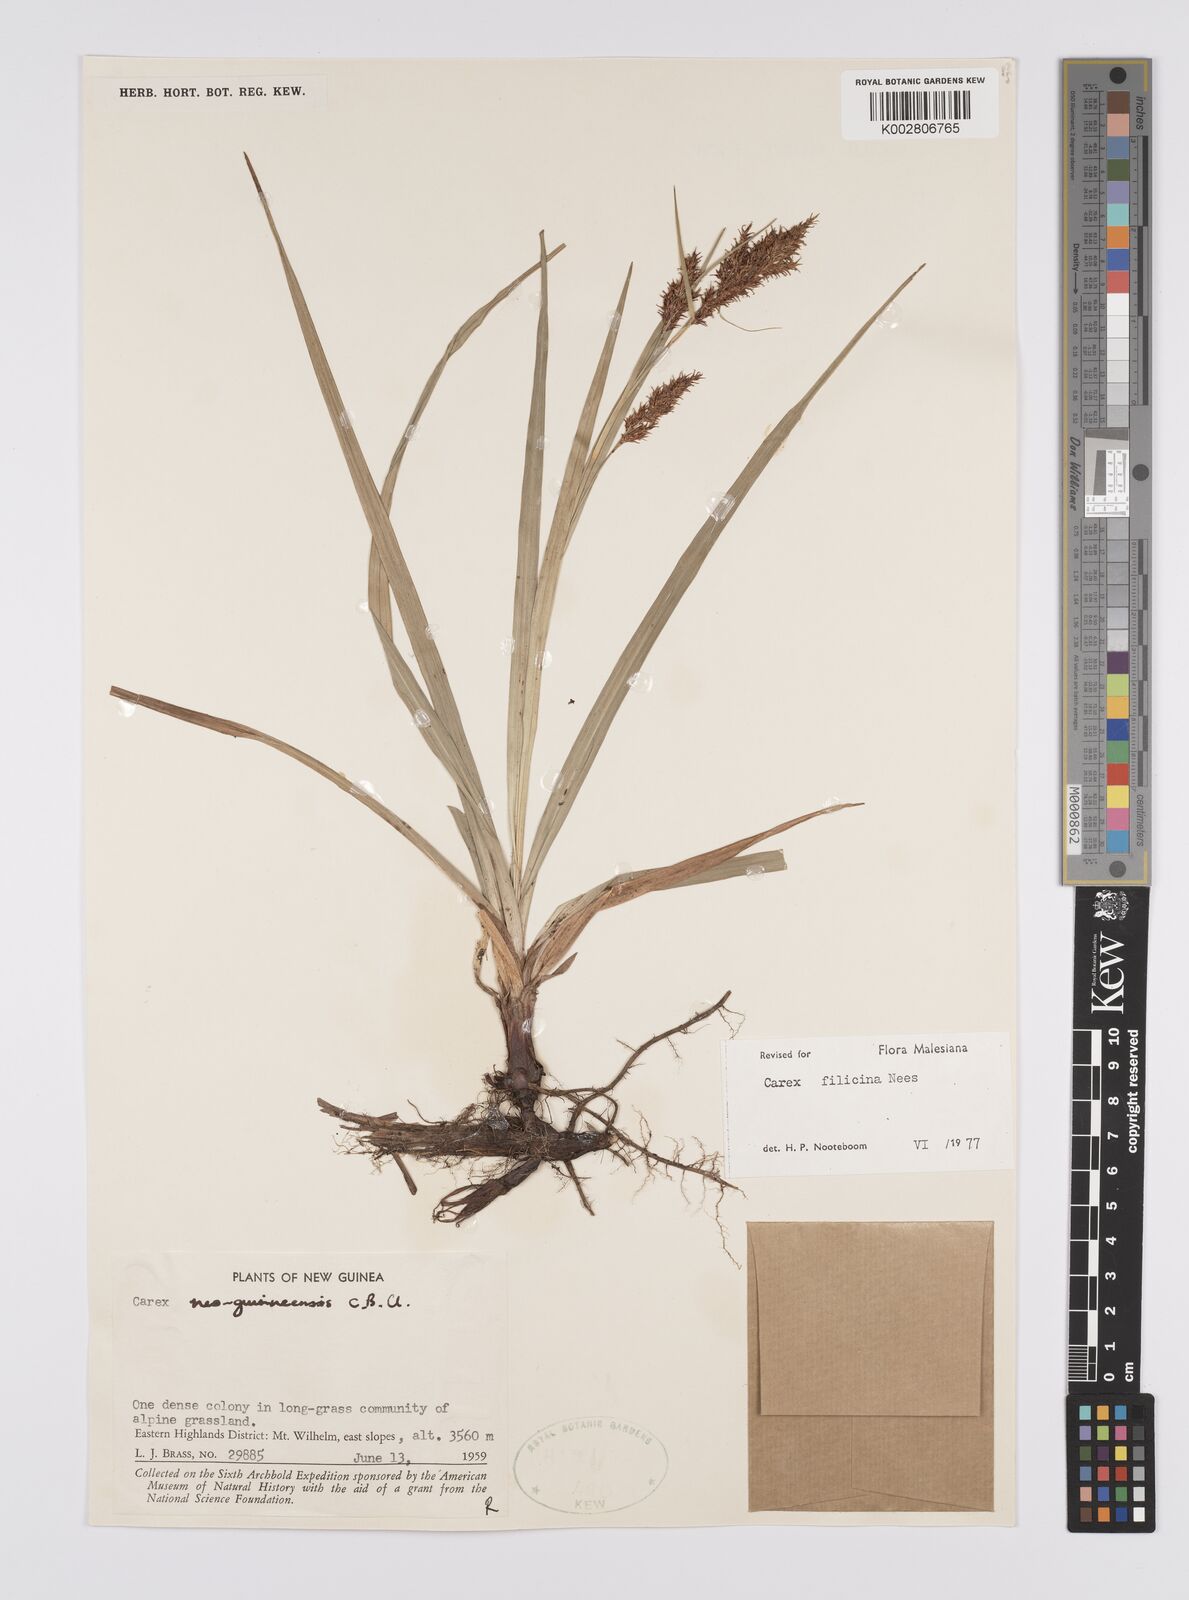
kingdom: Plantae
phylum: Tracheophyta
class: Liliopsida
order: Poales
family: Cyperaceae
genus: Carex
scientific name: Carex filicina
